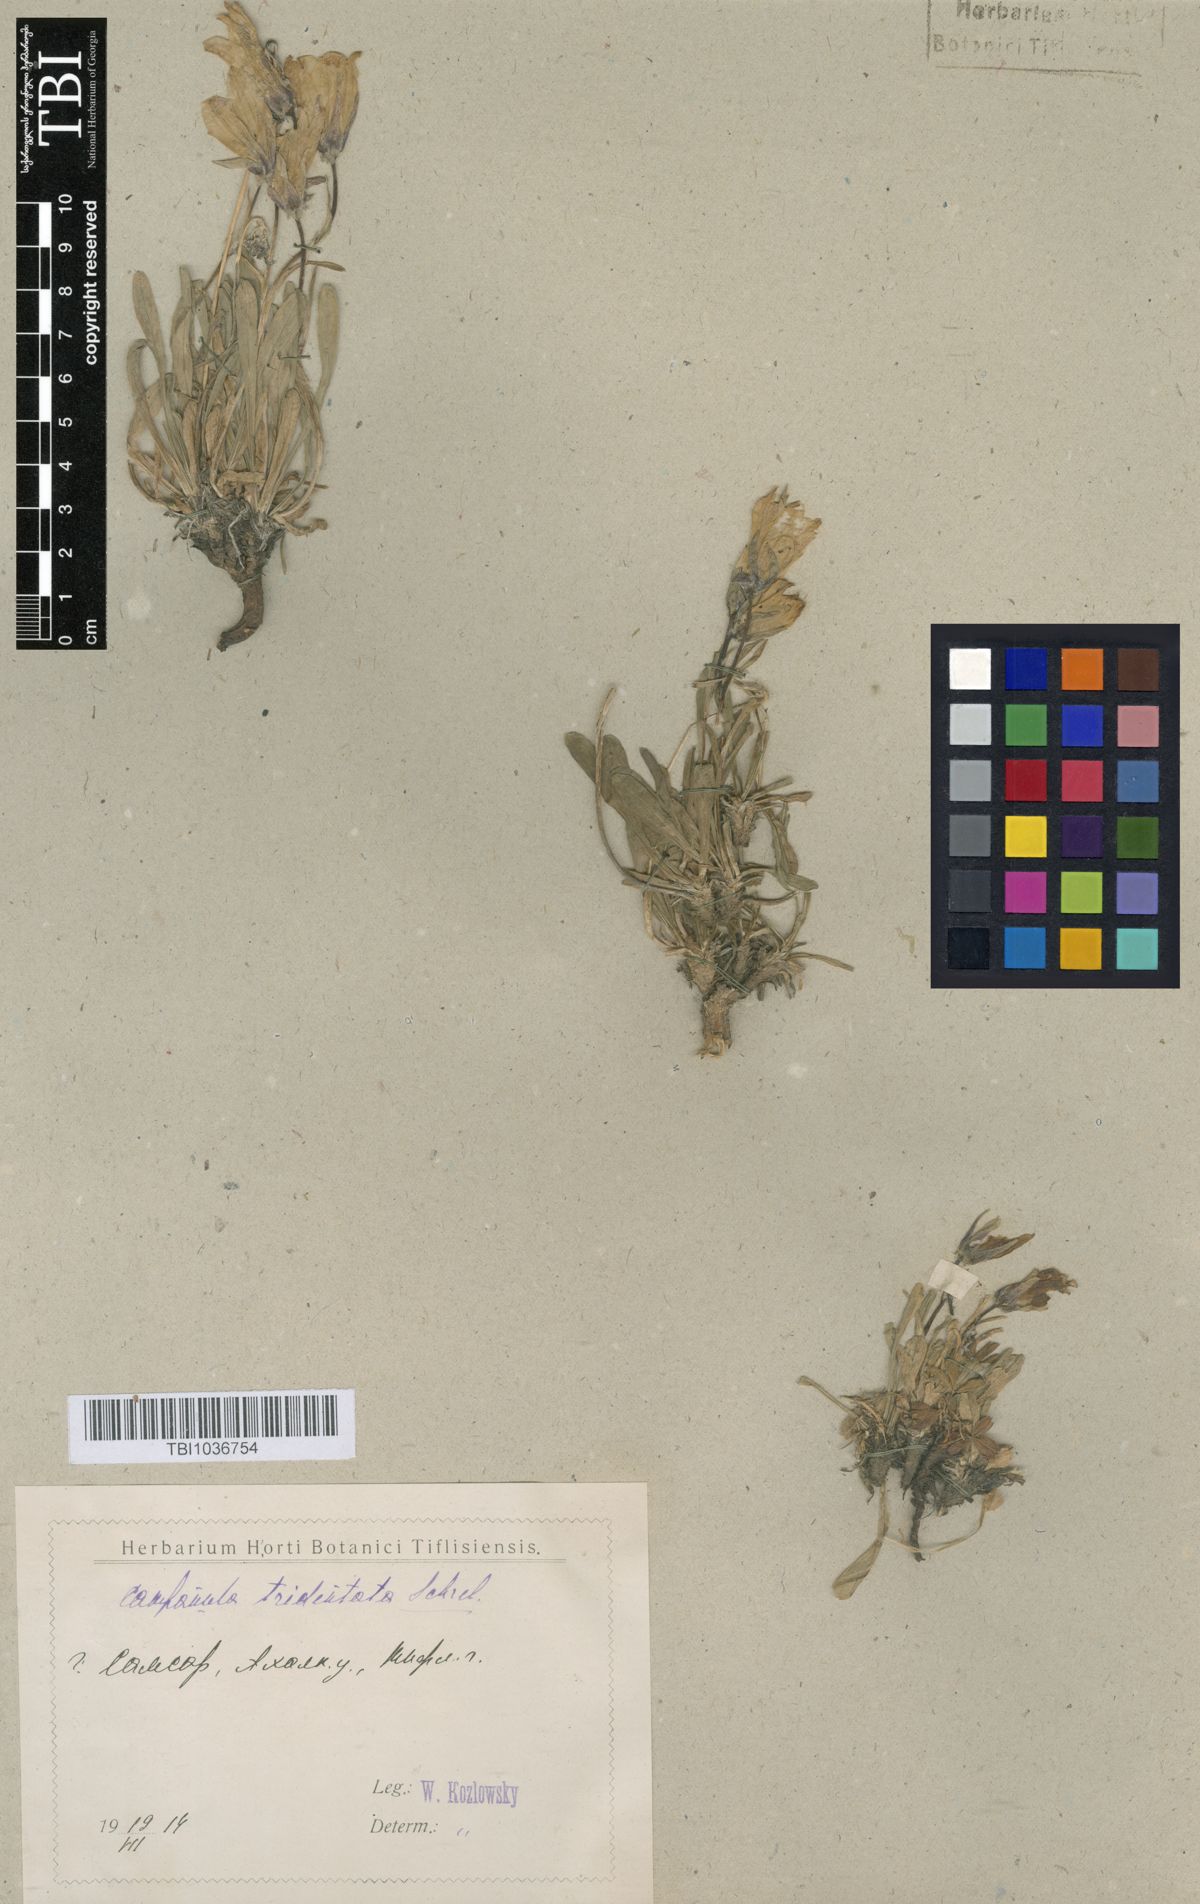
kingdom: Plantae
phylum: Tracheophyta
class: Magnoliopsida
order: Asterales
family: Campanulaceae
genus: Campanula
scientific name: Campanula tridentata
